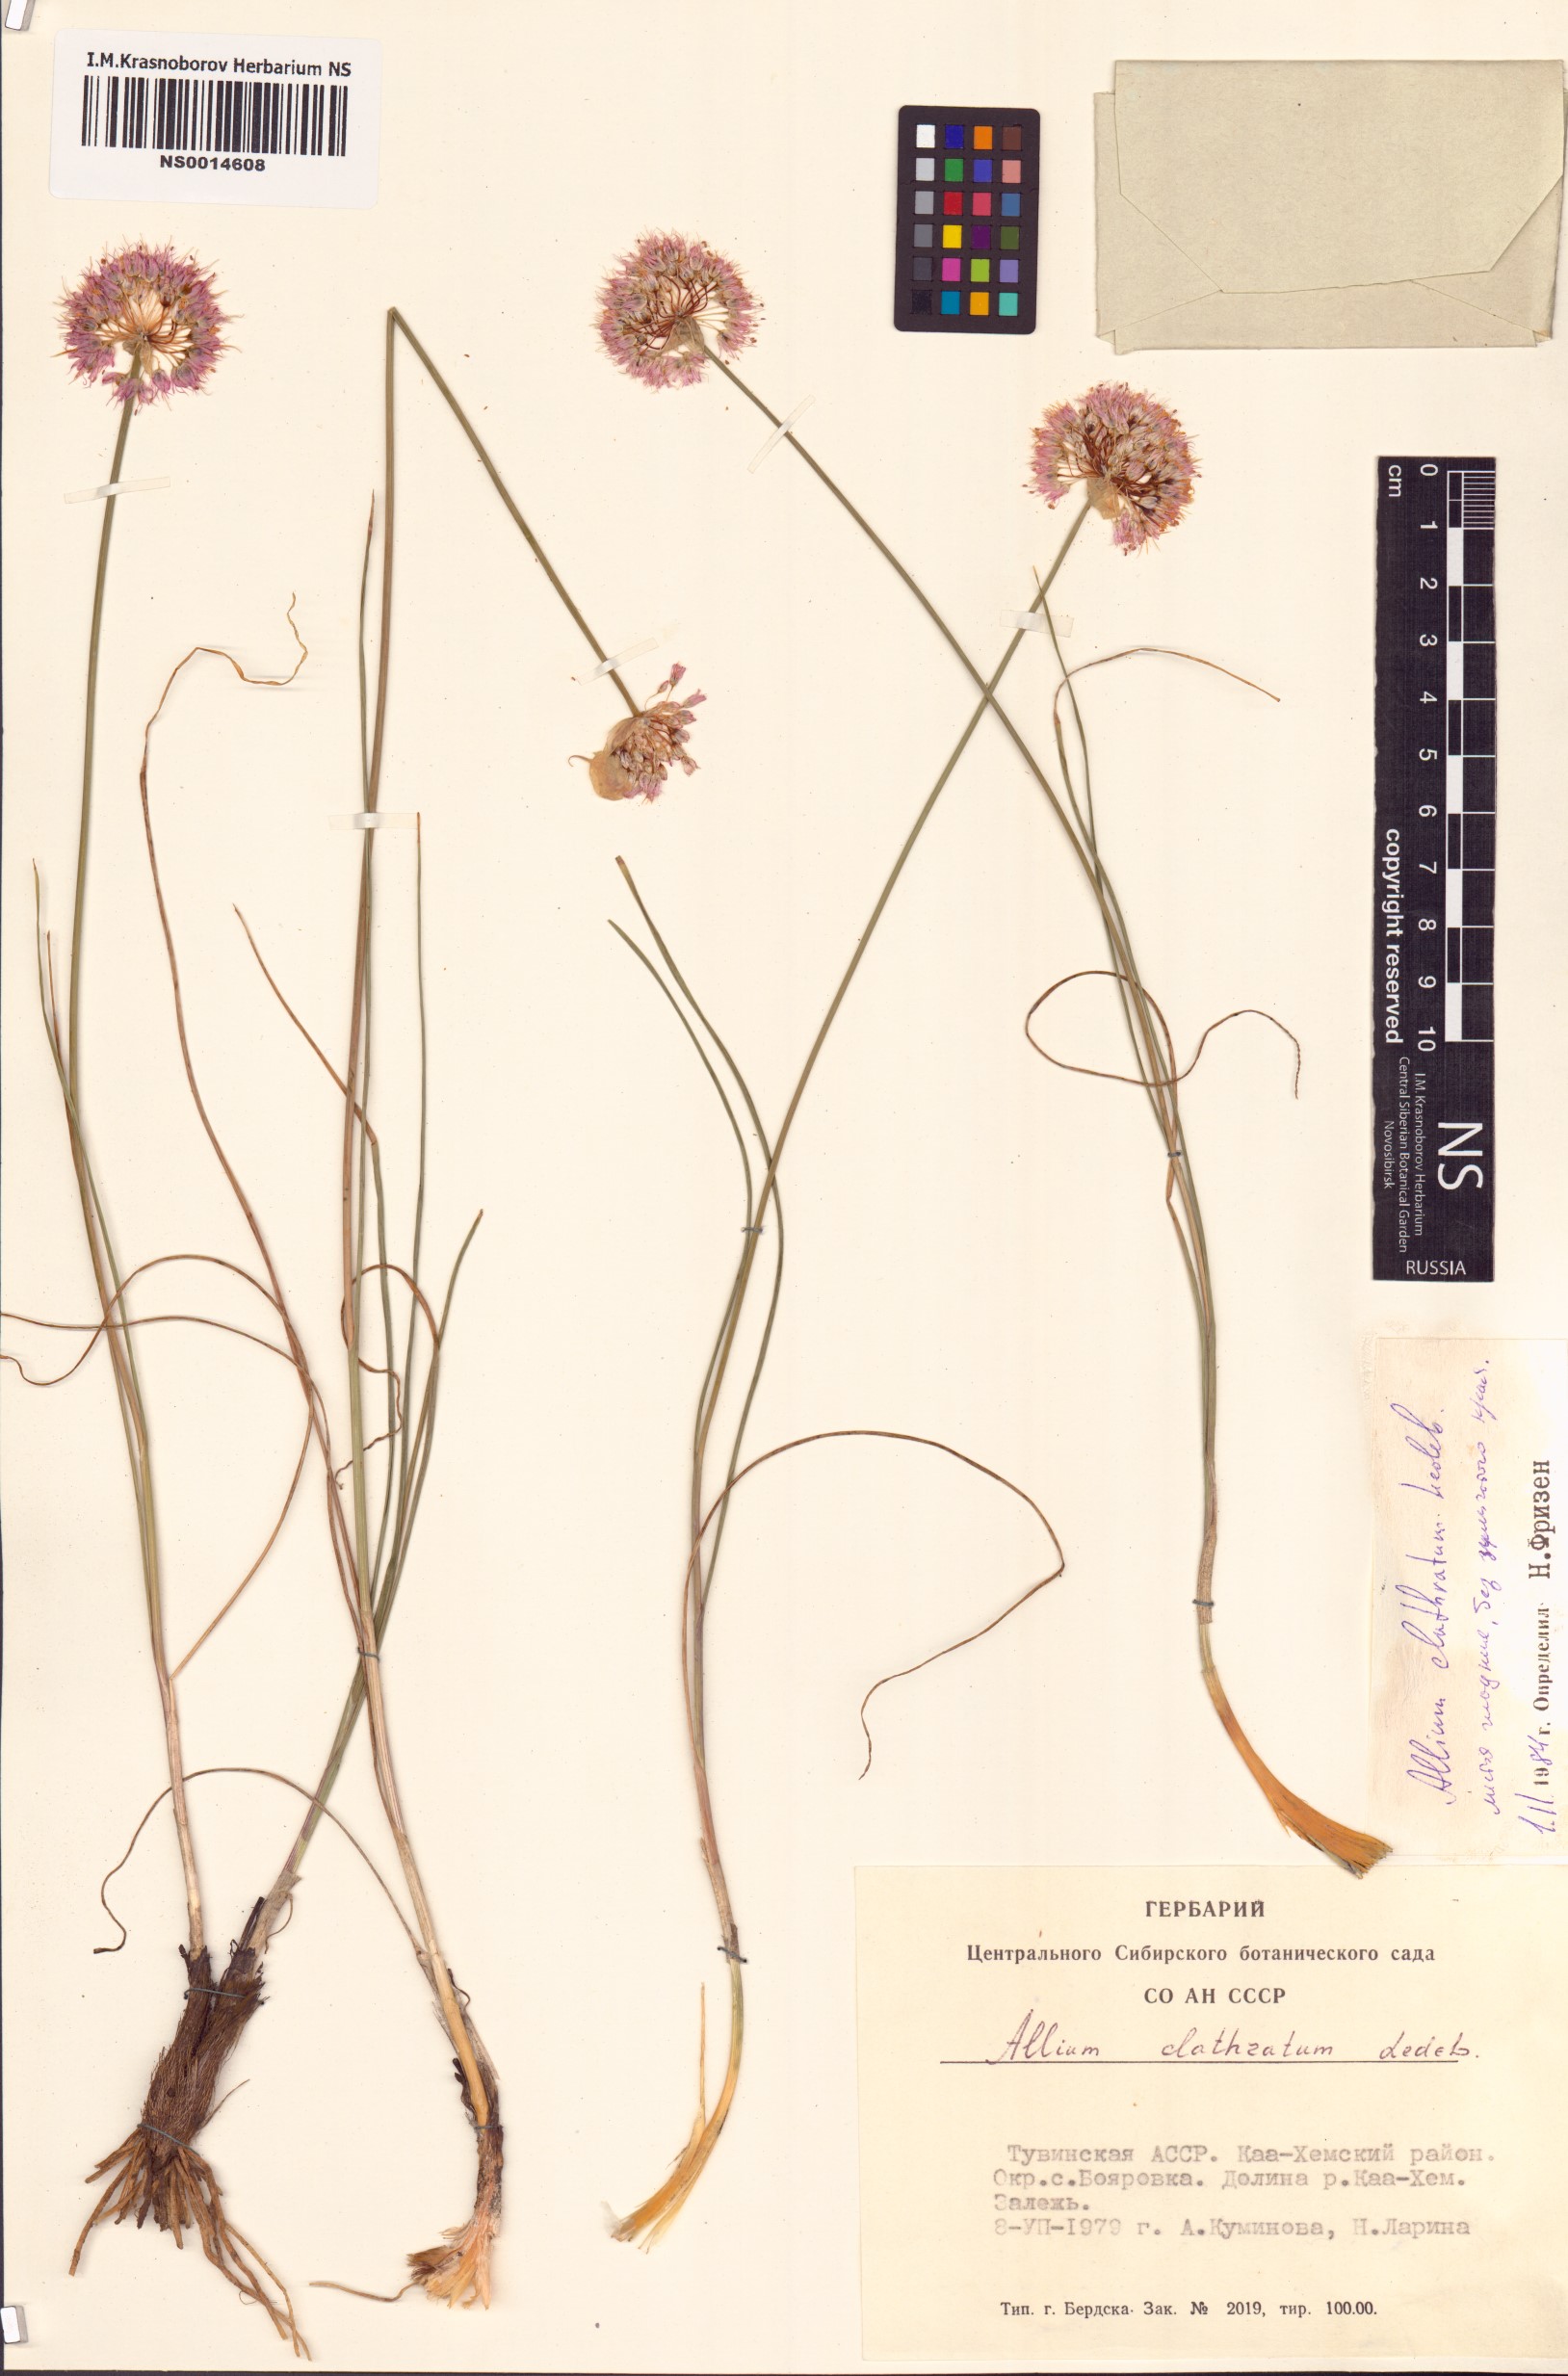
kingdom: Plantae
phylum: Tracheophyta
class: Liliopsida
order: Asparagales
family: Amaryllidaceae
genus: Allium
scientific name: Allium clathratum
